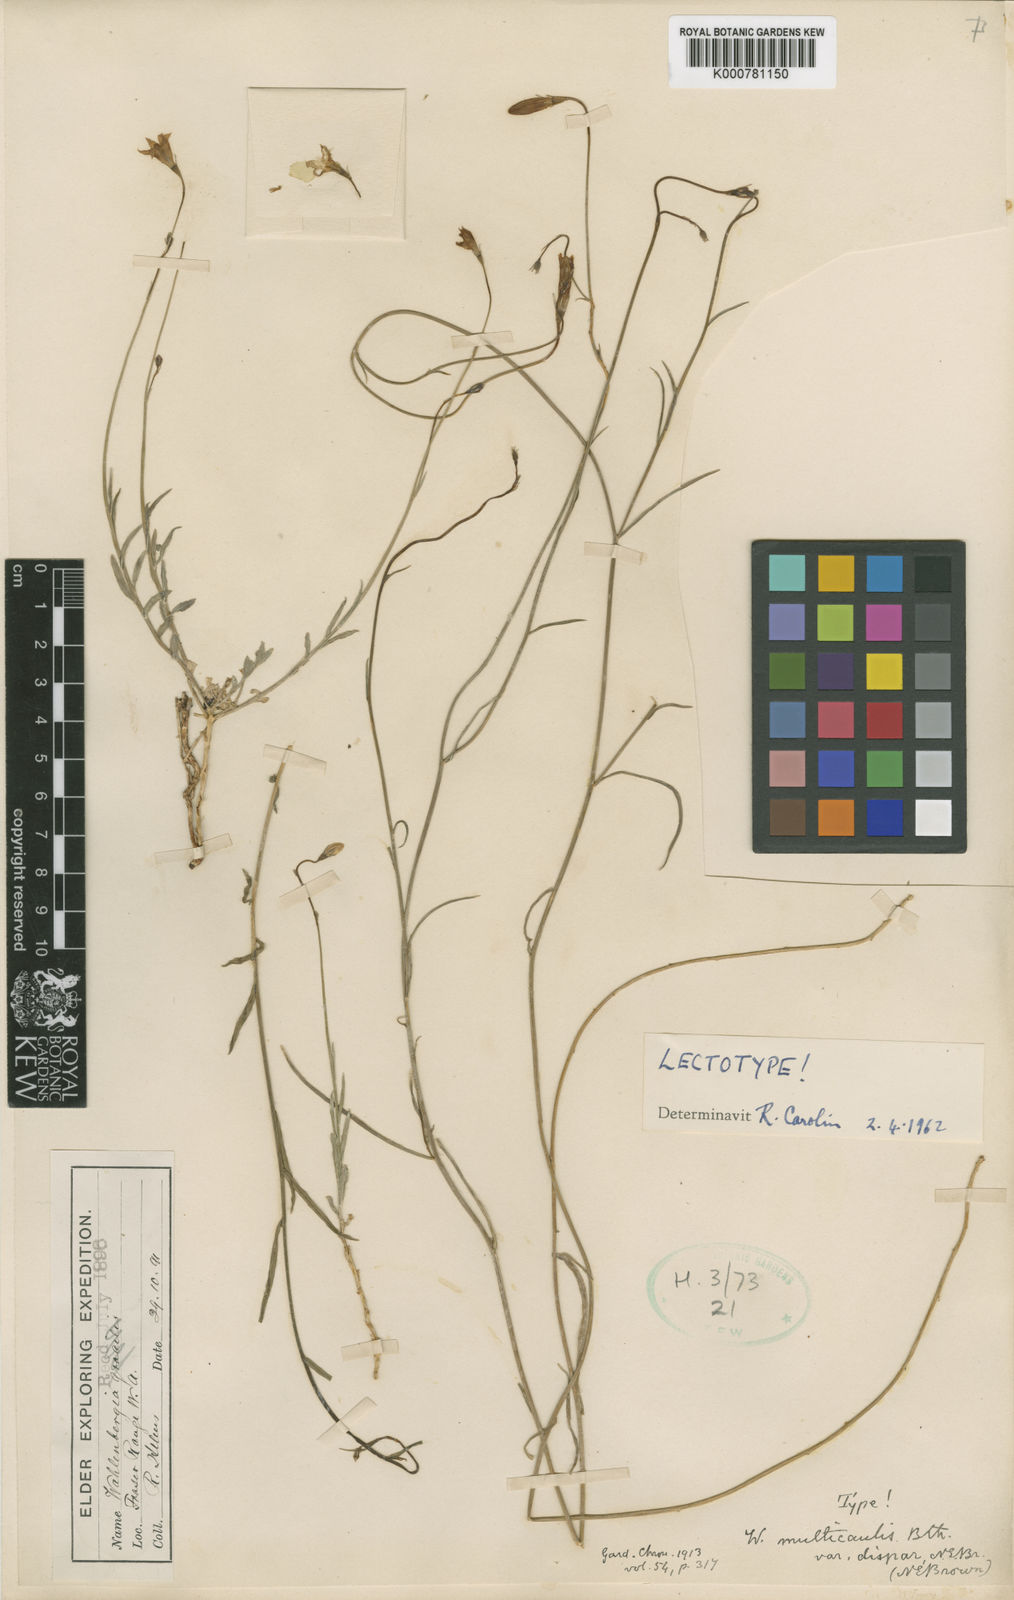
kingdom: Plantae
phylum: Tracheophyta
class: Magnoliopsida
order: Asterales
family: Campanulaceae
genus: Wahlenbergia
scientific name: Wahlenbergia multicaulis
